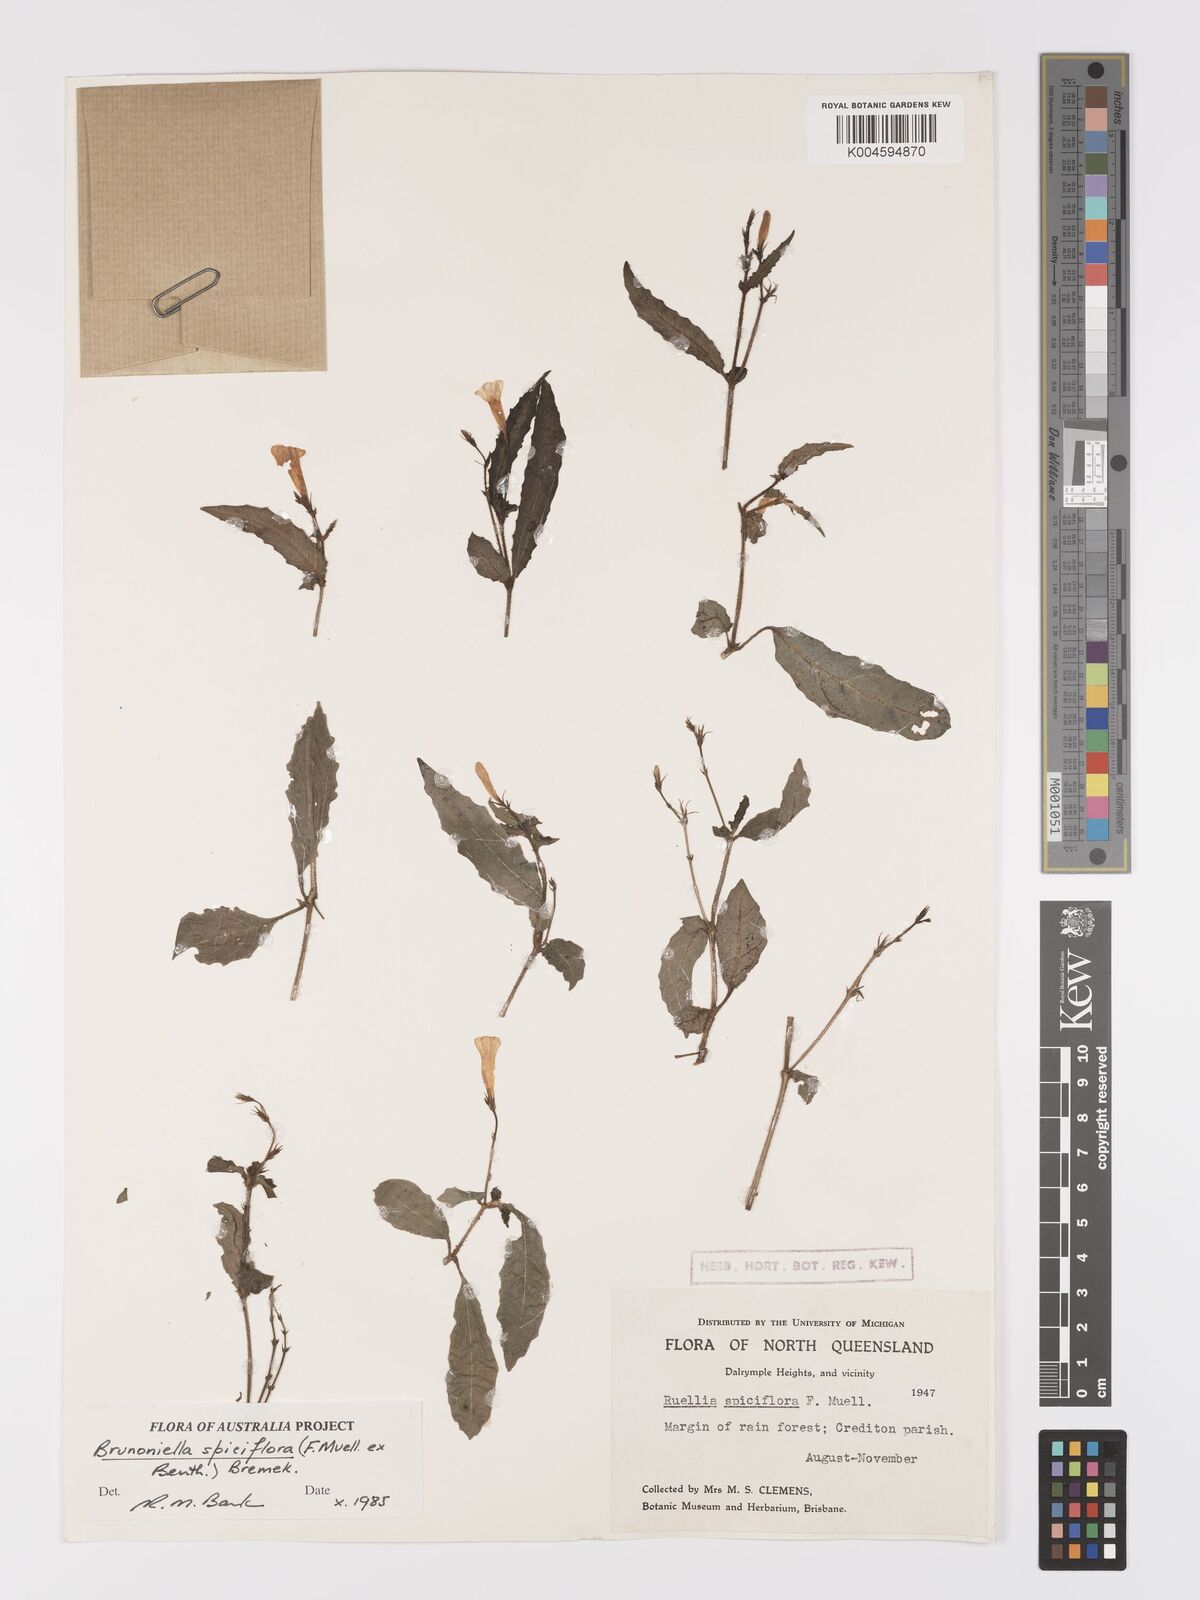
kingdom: Plantae
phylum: Tracheophyta
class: Magnoliopsida
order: Lamiales
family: Acanthaceae
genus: Brunoniella
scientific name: Brunoniella spiciflora
